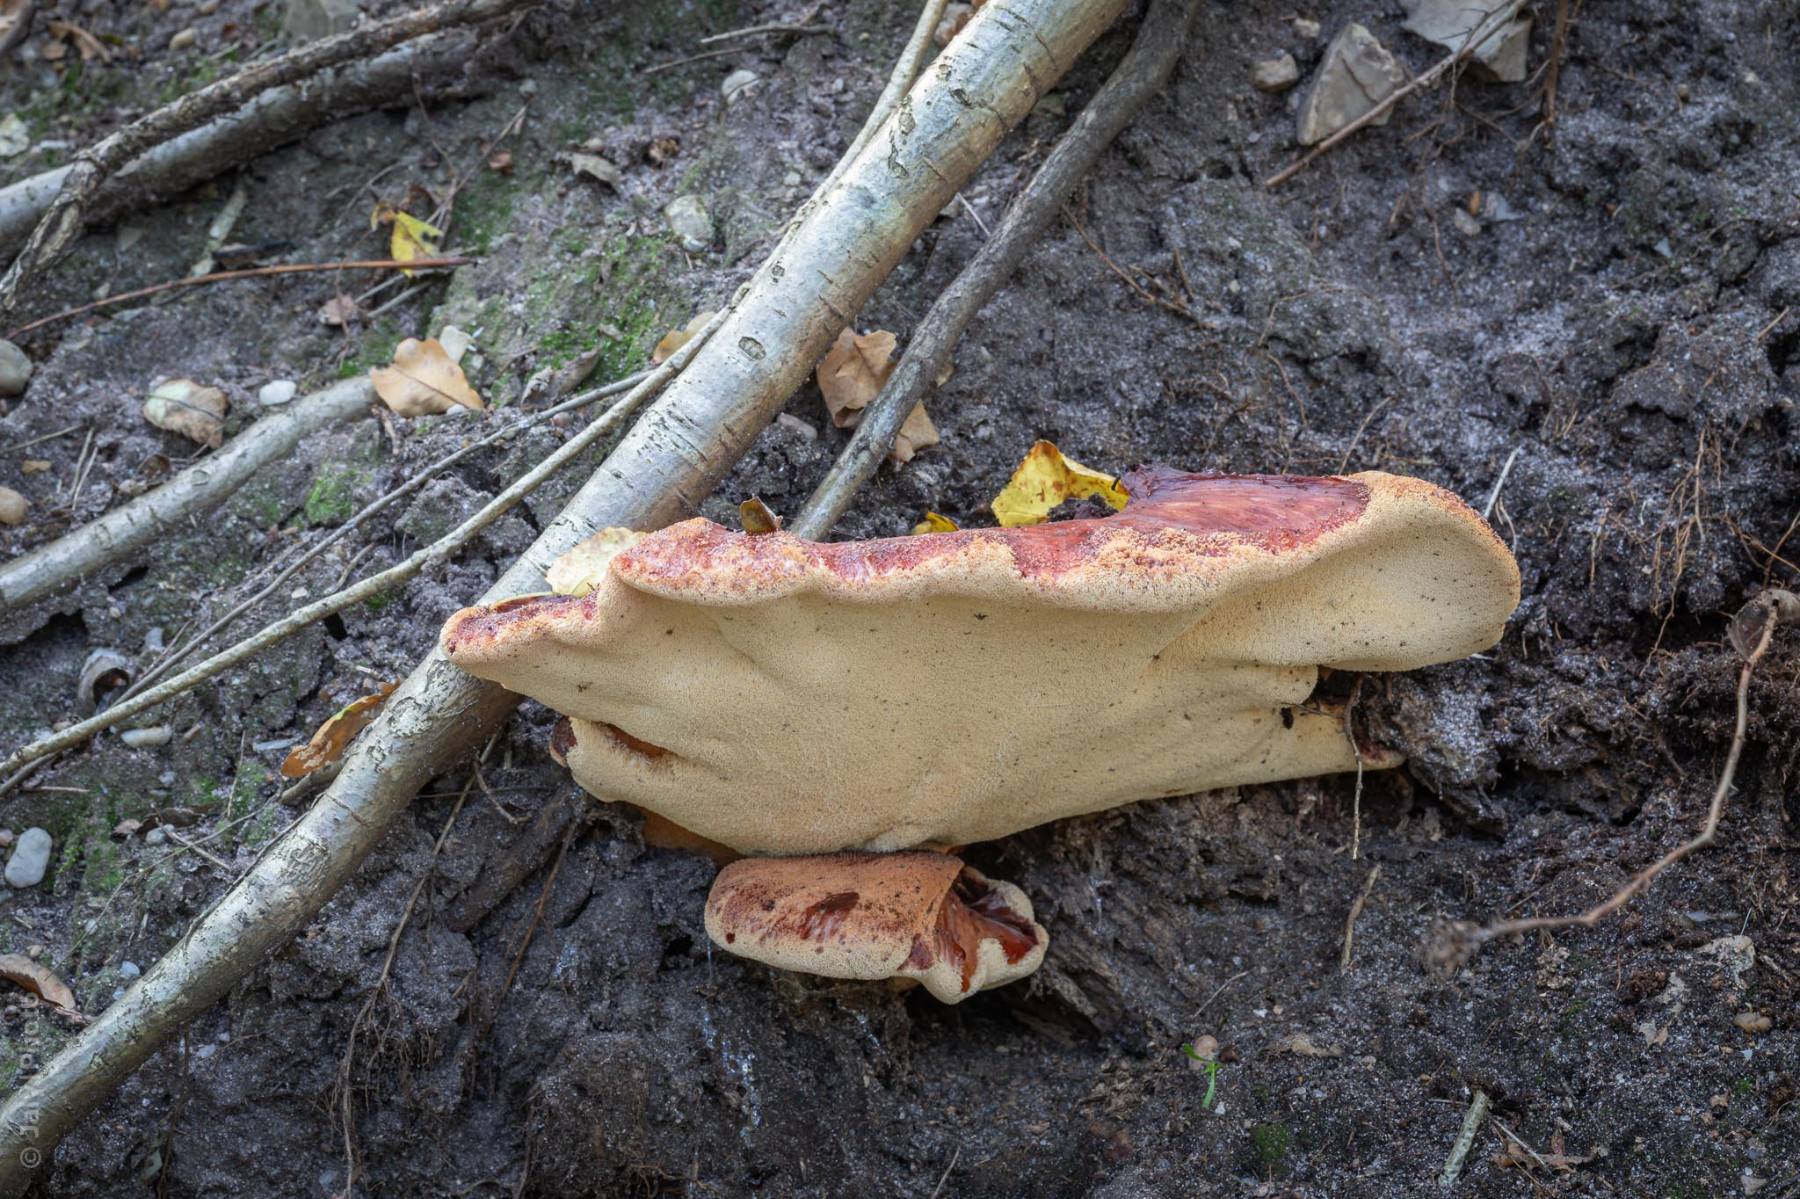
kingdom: Fungi
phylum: Basidiomycota
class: Agaricomycetes
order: Agaricales
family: Fistulinaceae
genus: Fistulina
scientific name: Fistulina hepatica
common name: oksetunge
